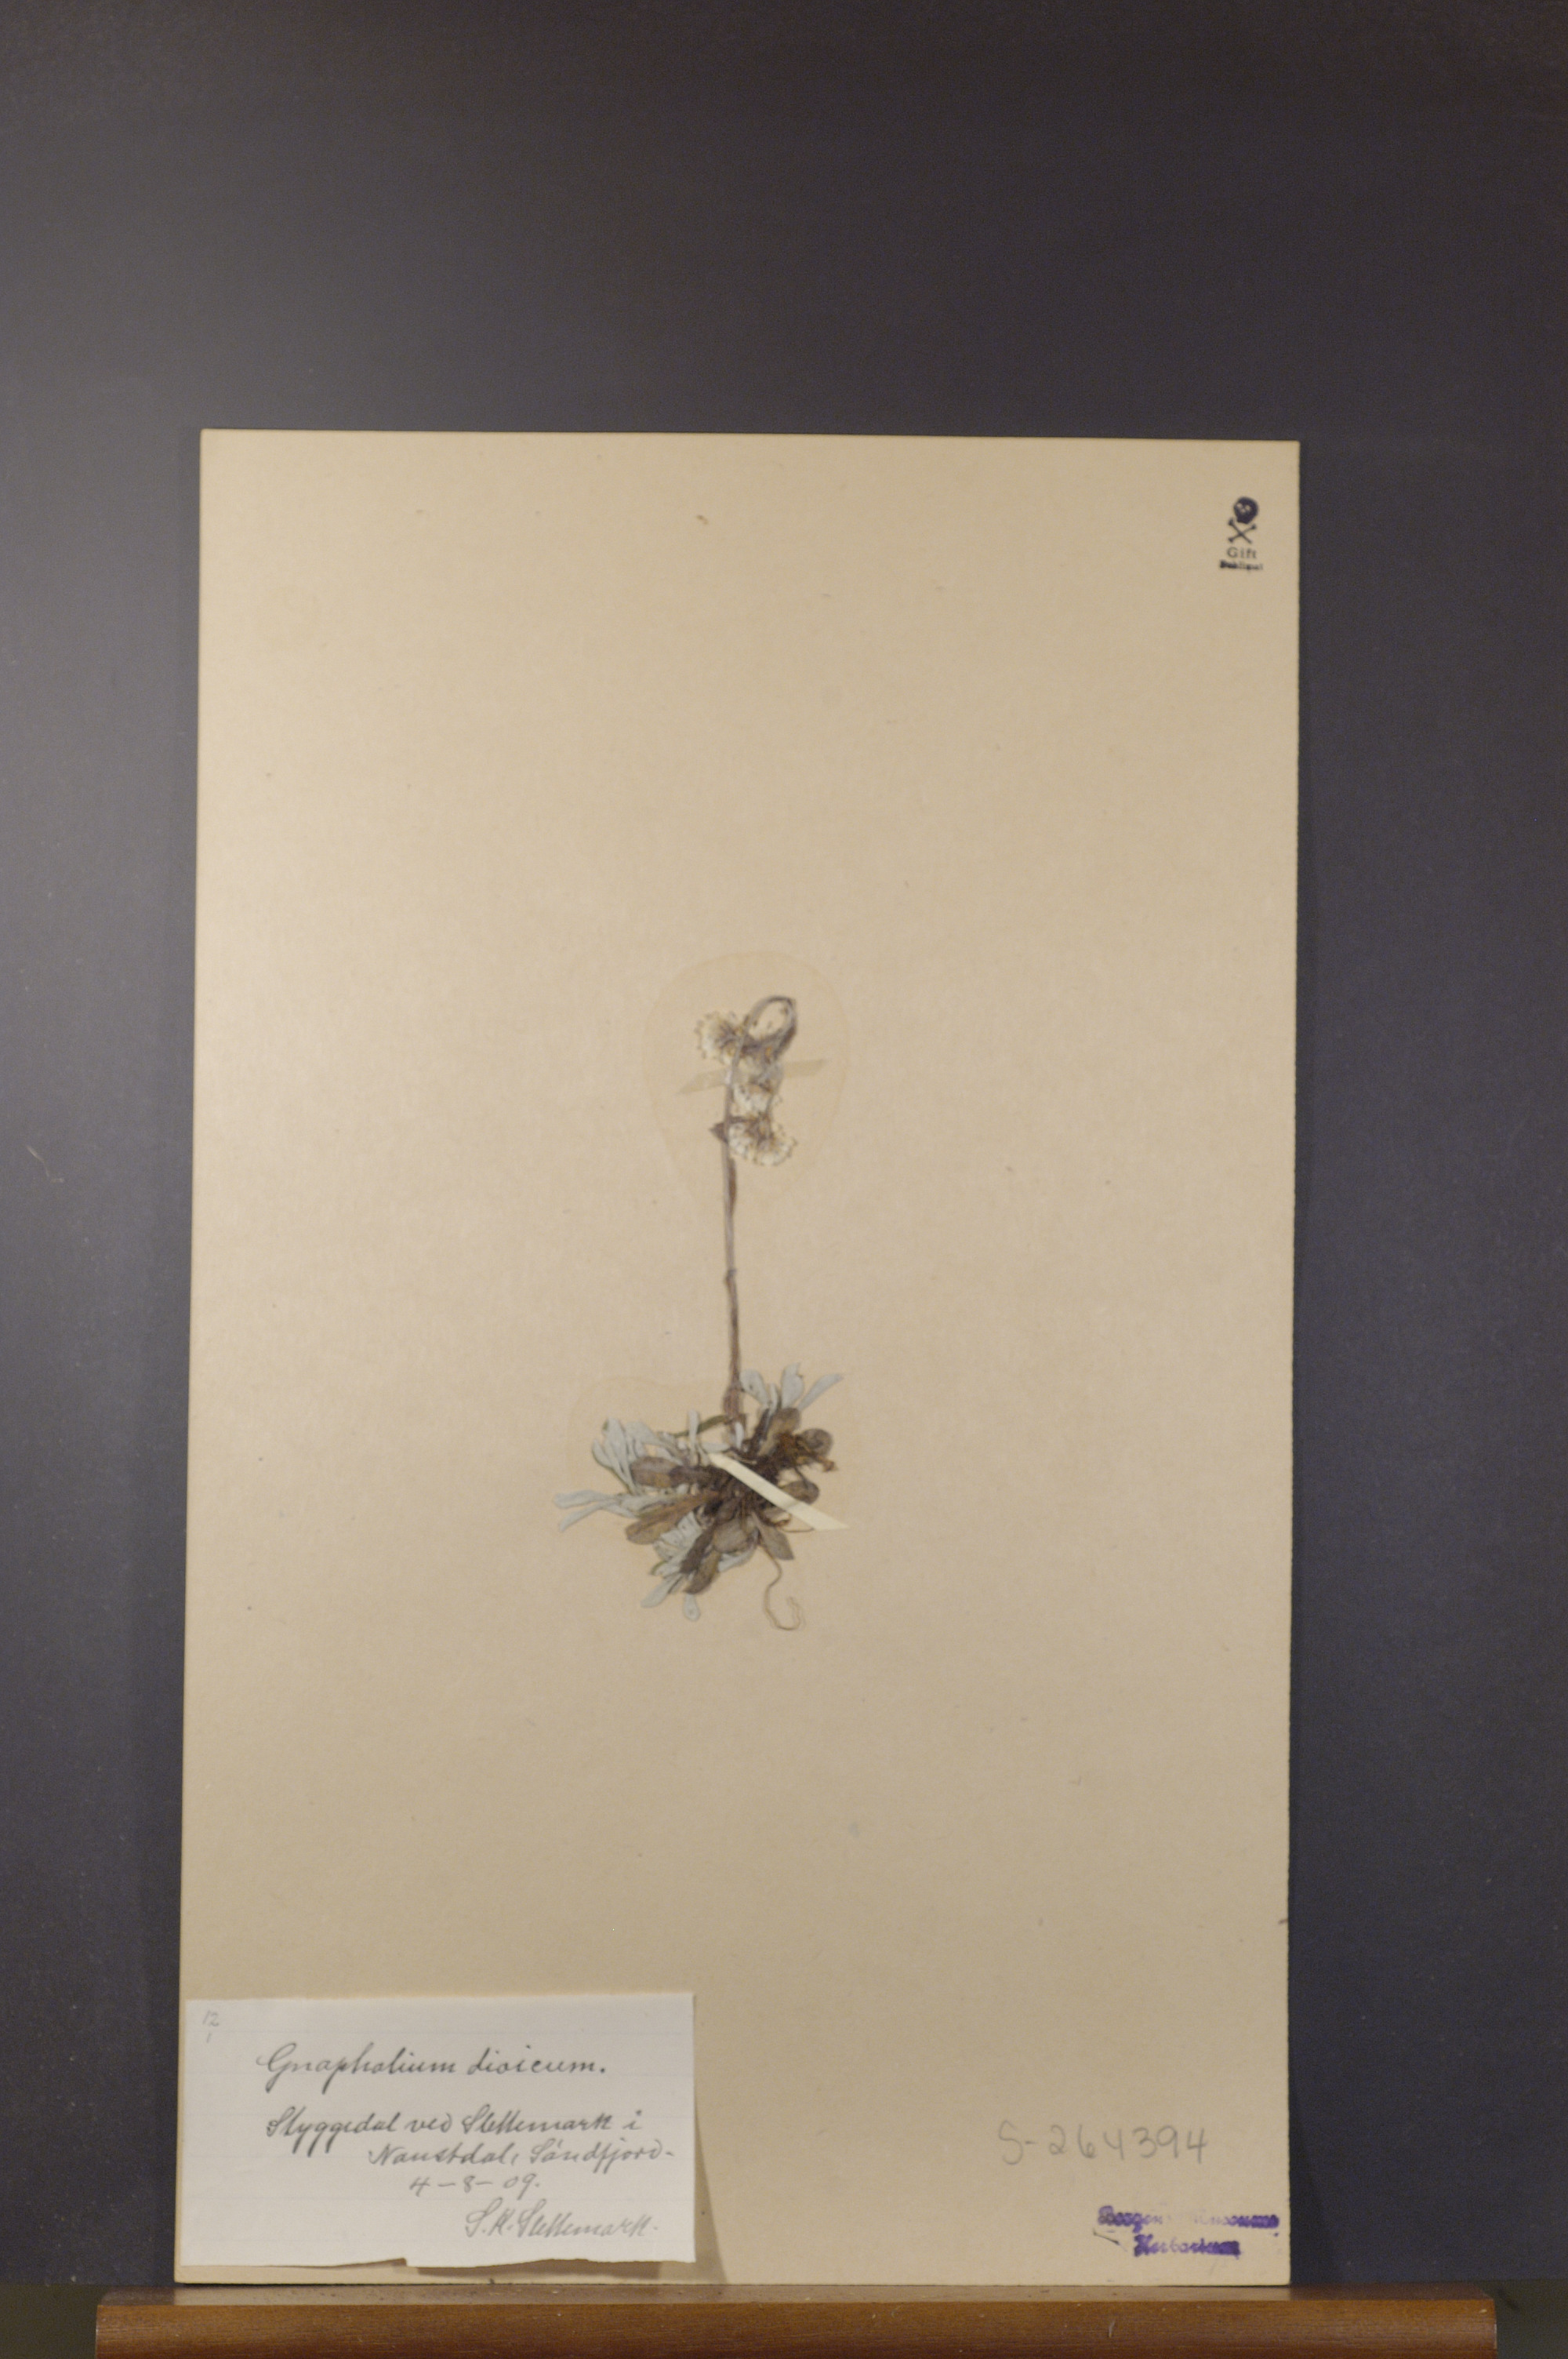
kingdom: Plantae
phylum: Tracheophyta
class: Magnoliopsida
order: Asterales
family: Asteraceae
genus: Antennaria
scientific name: Antennaria dioica
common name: Mountain everlasting
